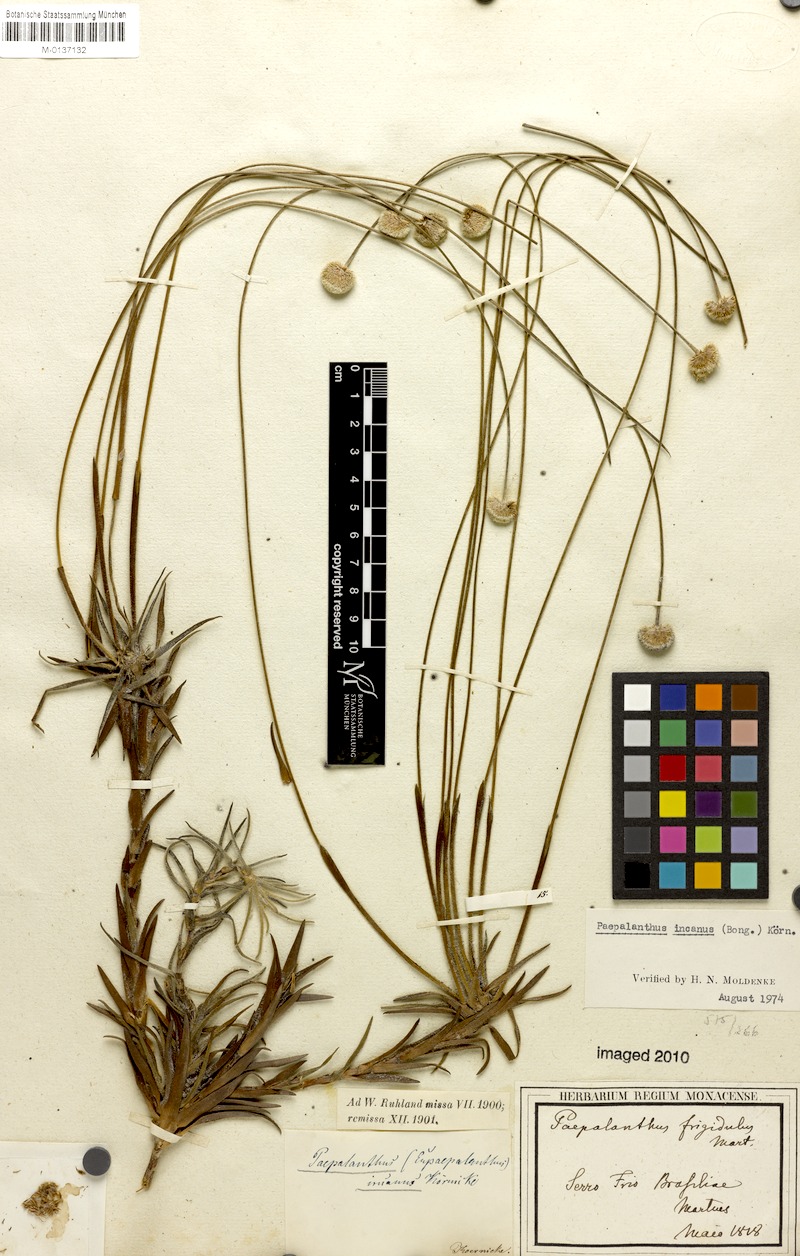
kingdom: Plantae
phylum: Tracheophyta
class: Liliopsida
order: Poales
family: Eriocaulaceae
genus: Paepalanthus
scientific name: Paepalanthus incanus
